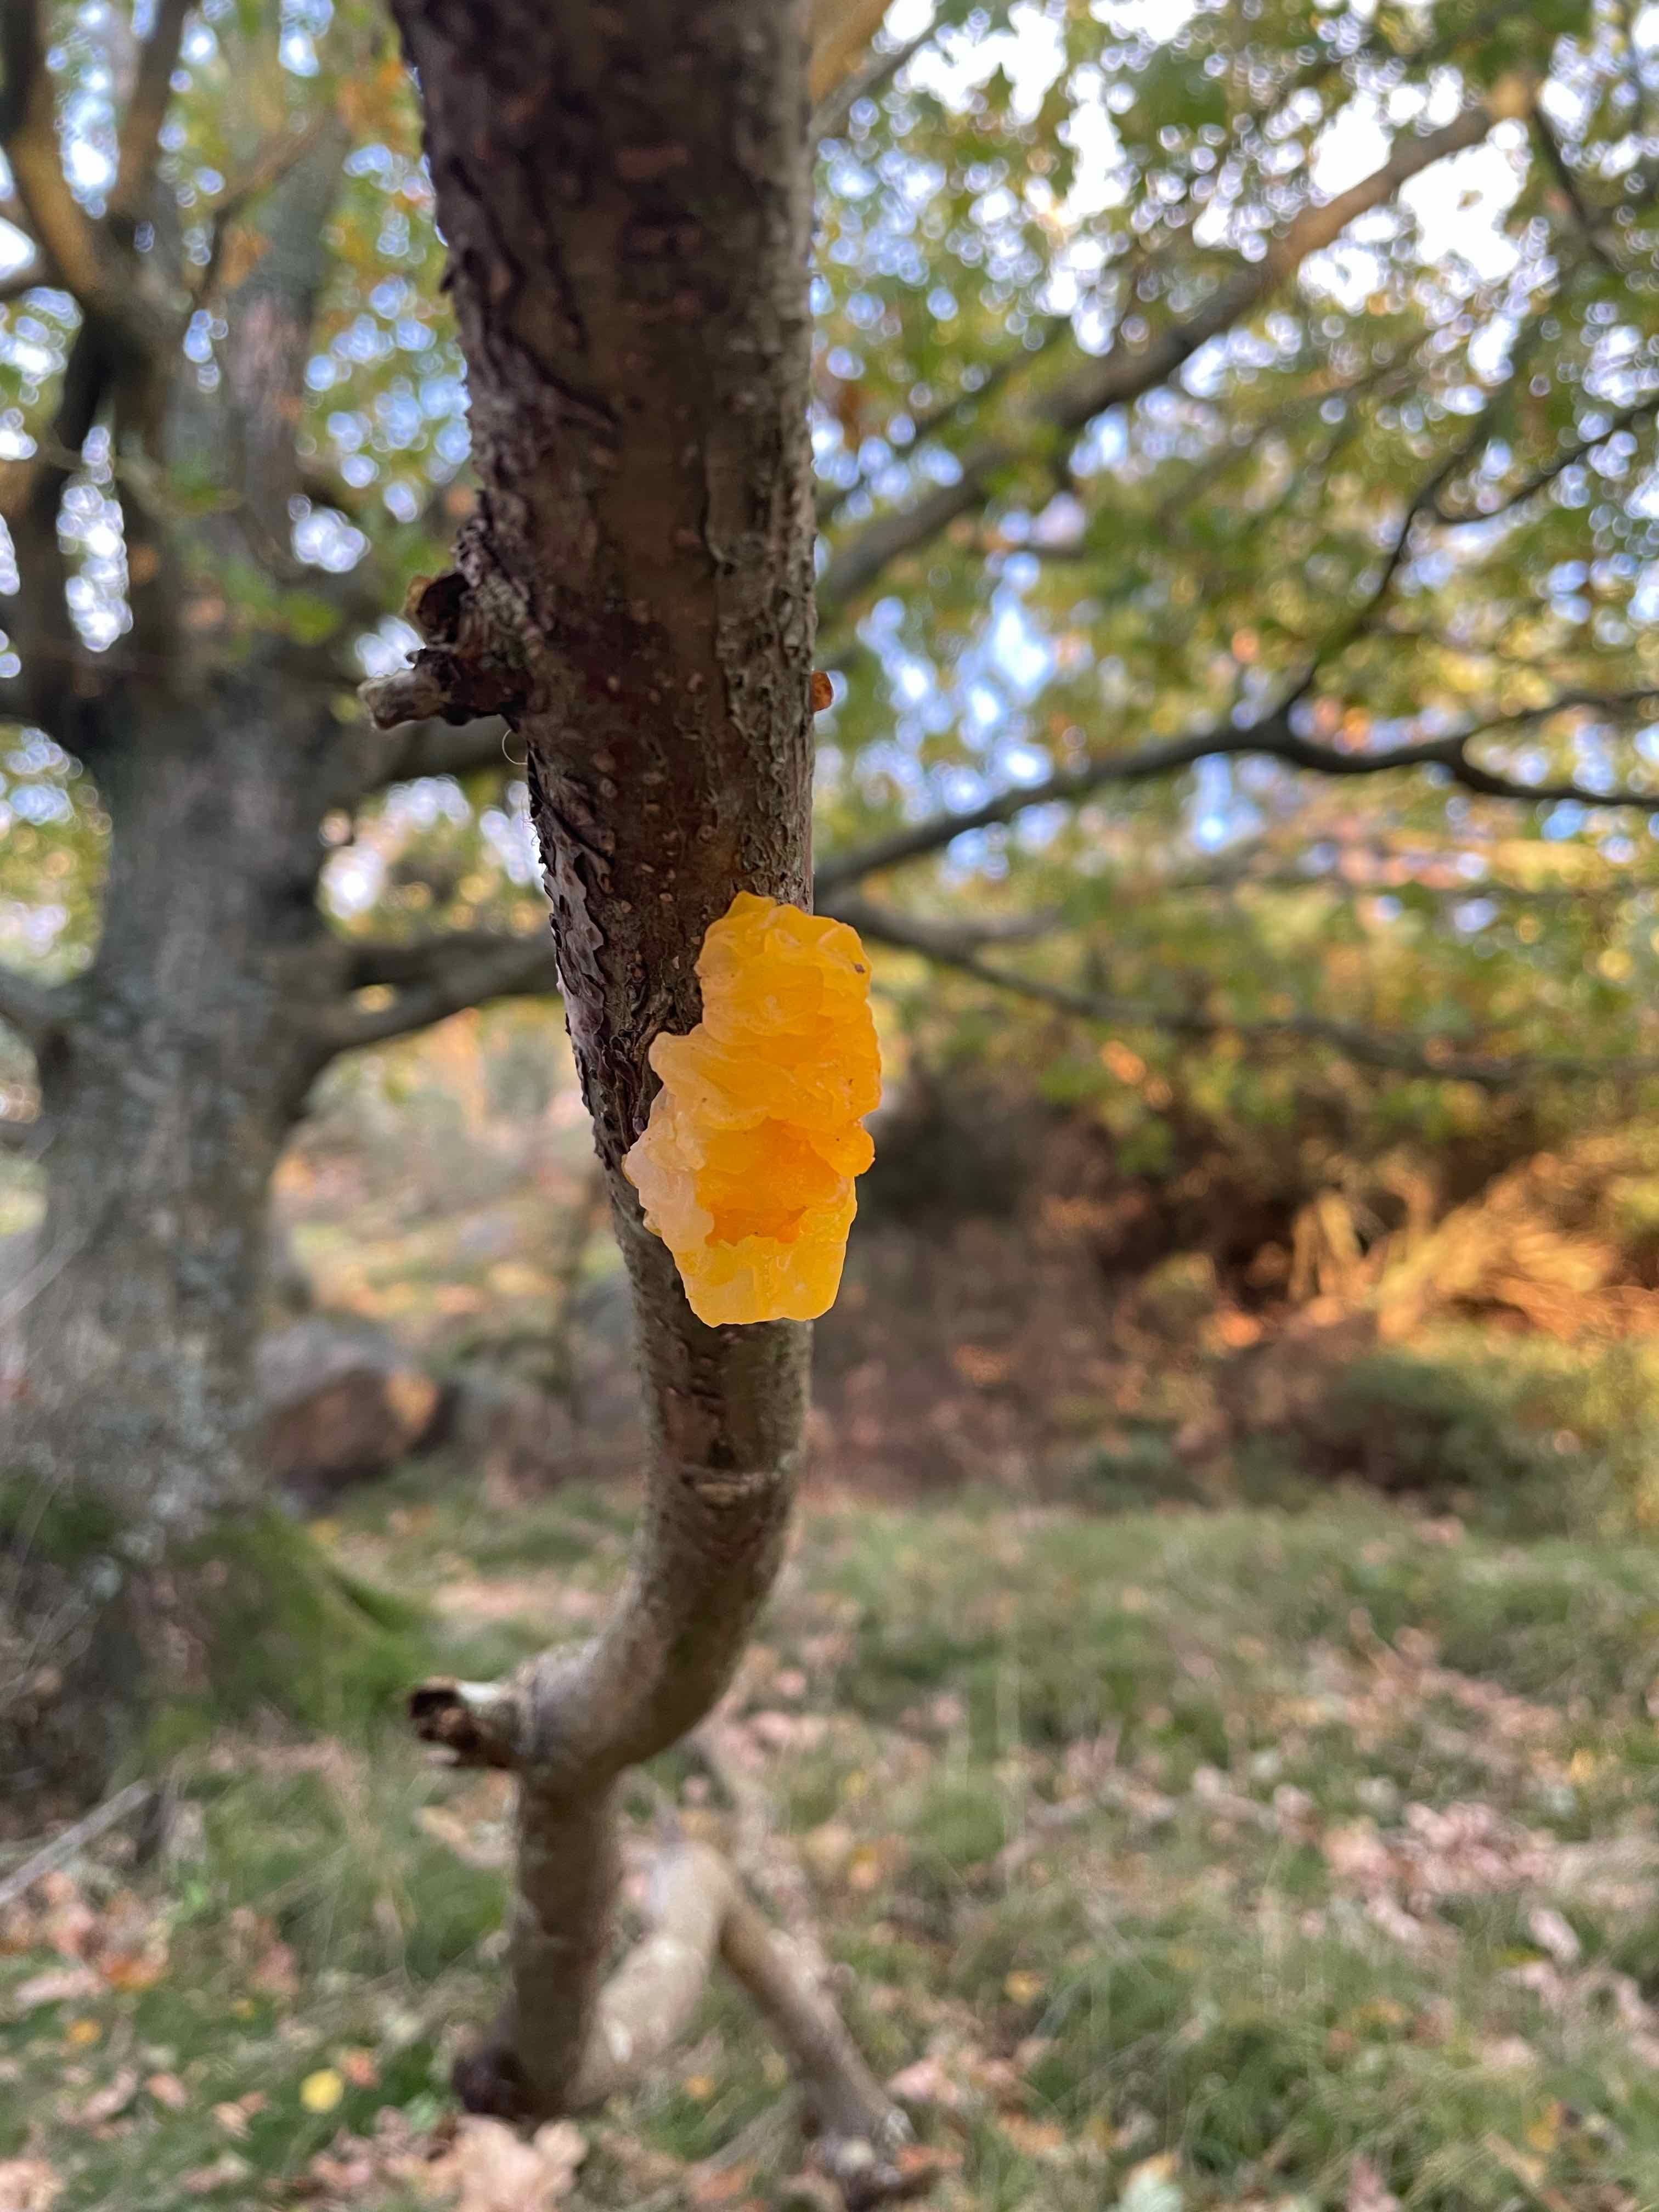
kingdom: Fungi
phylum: Basidiomycota
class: Tremellomycetes
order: Tremellales
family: Tremellaceae
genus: Tremella
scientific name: Tremella mesenterica
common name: gul bævresvamp
